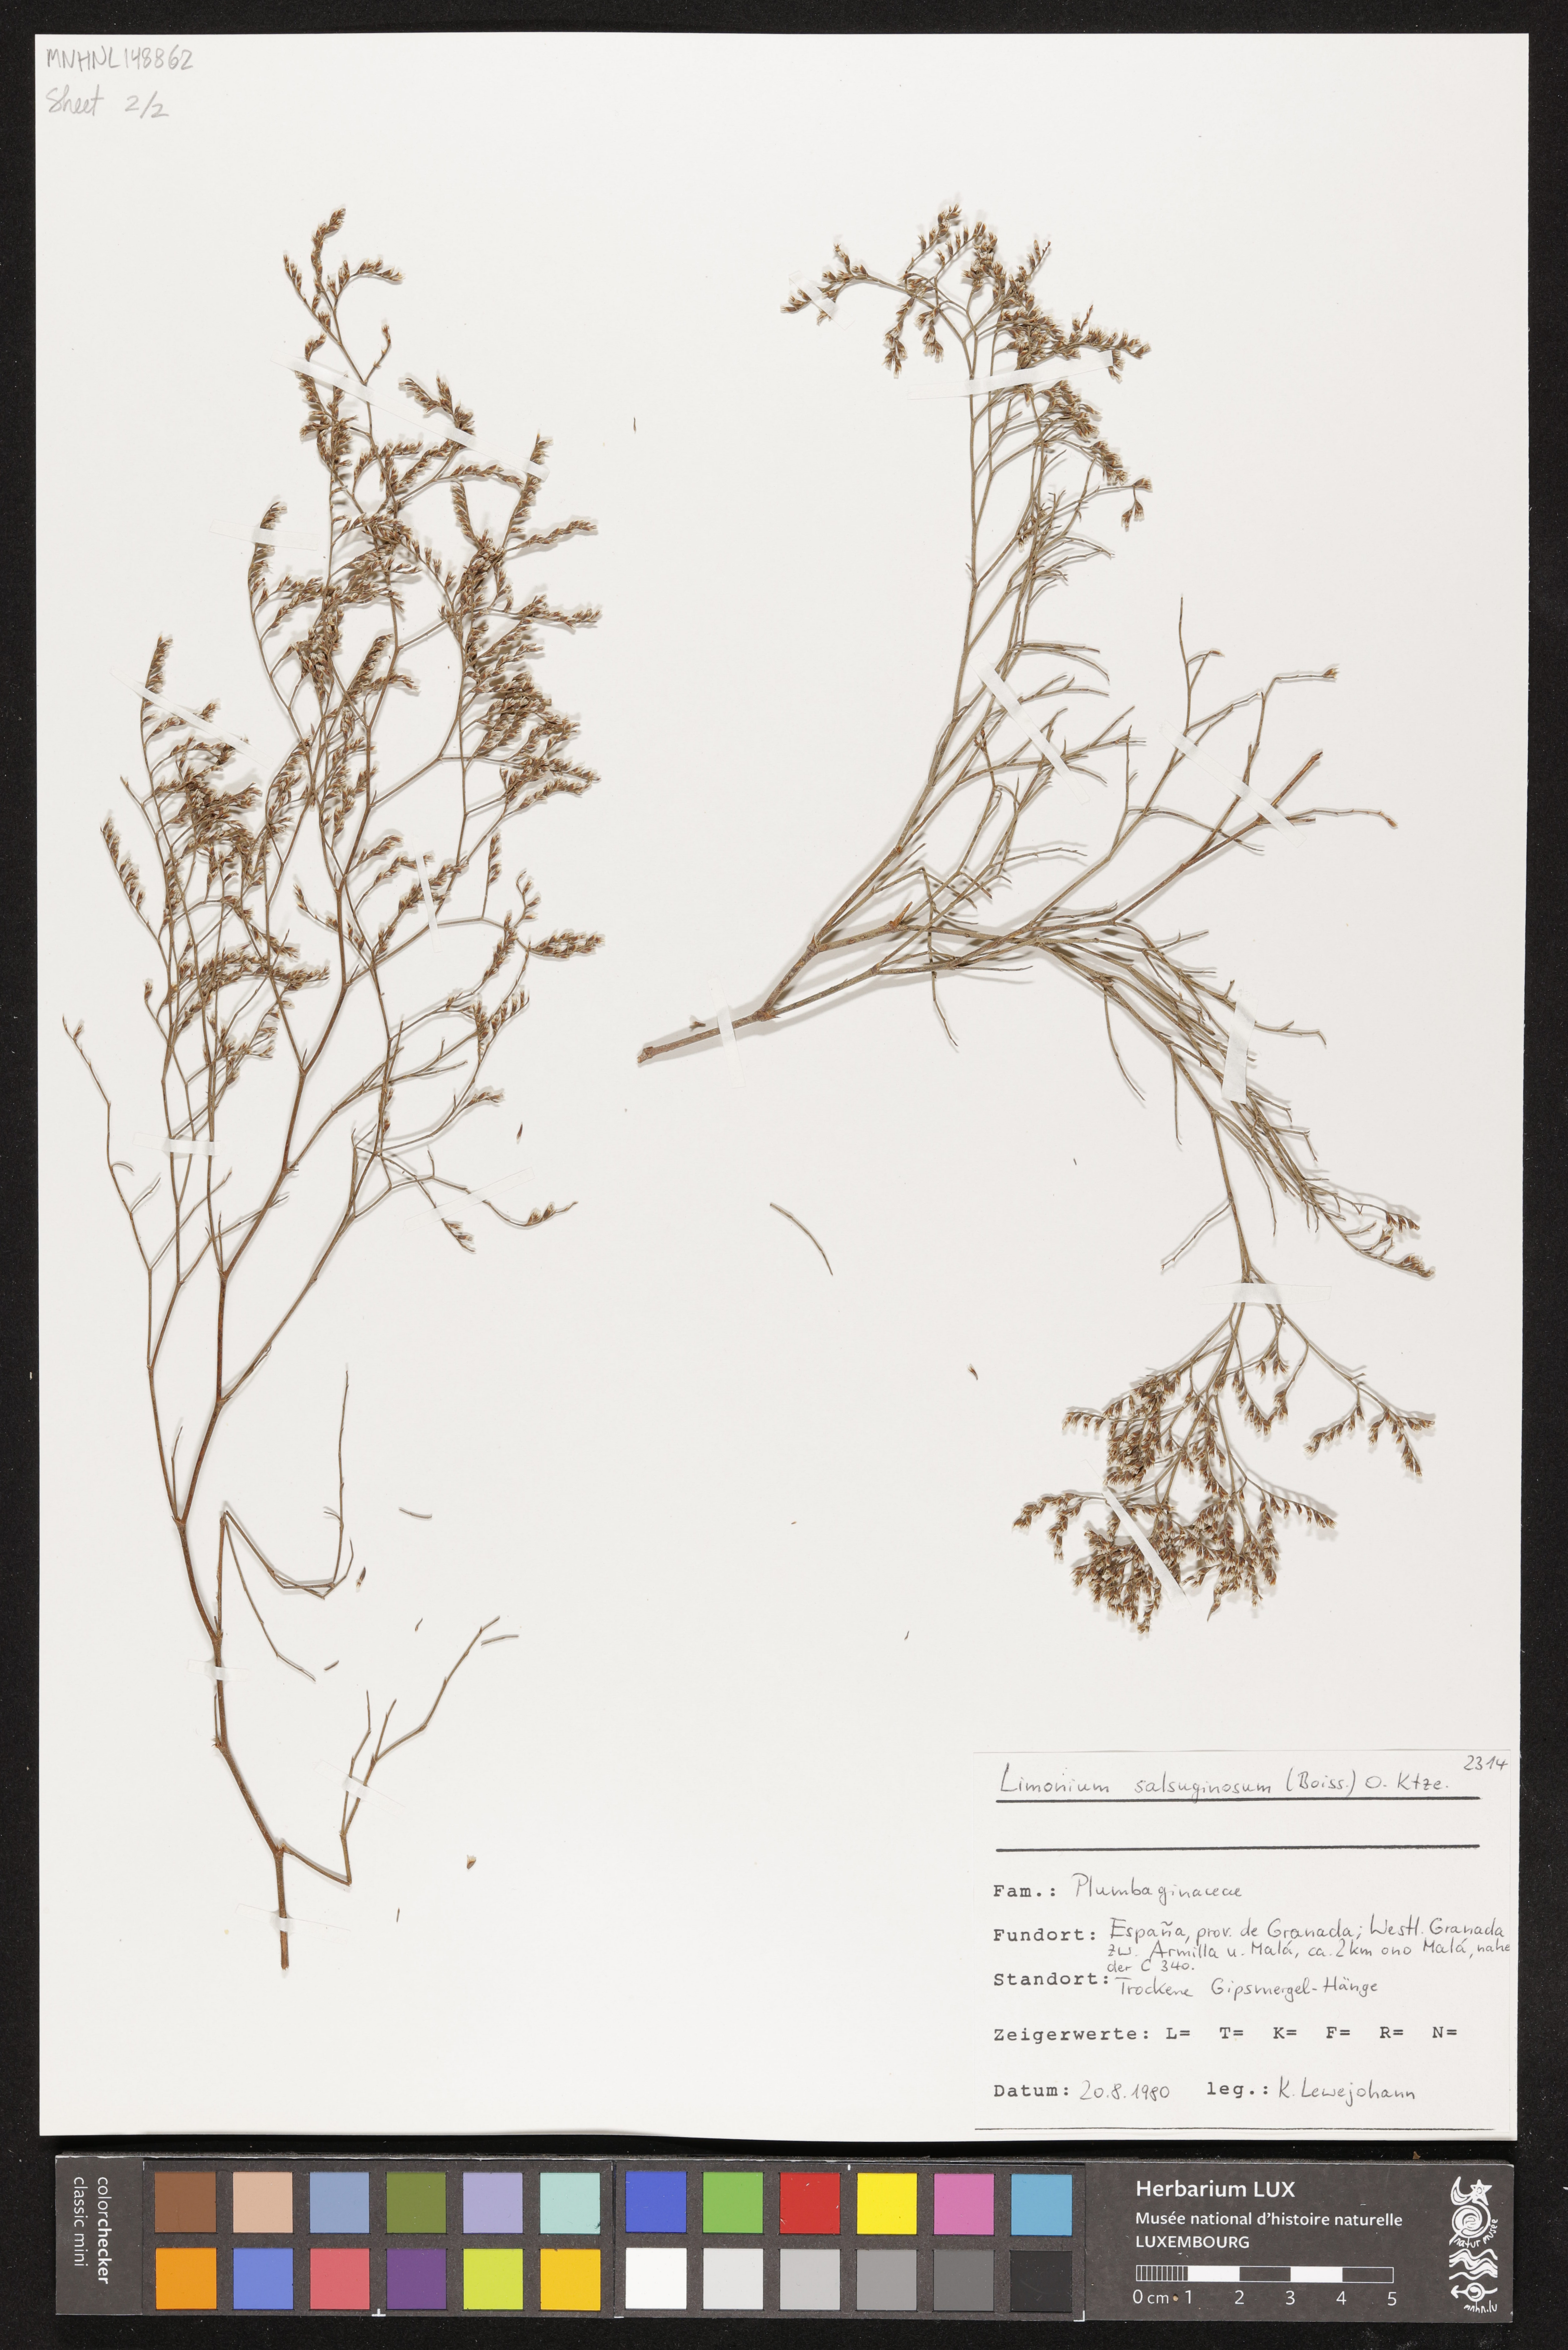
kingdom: Plantae
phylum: Tracheophyta
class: Magnoliopsida
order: Caryophyllales
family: Plumbaginaceae
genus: Limonium
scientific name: Limonium supinum
